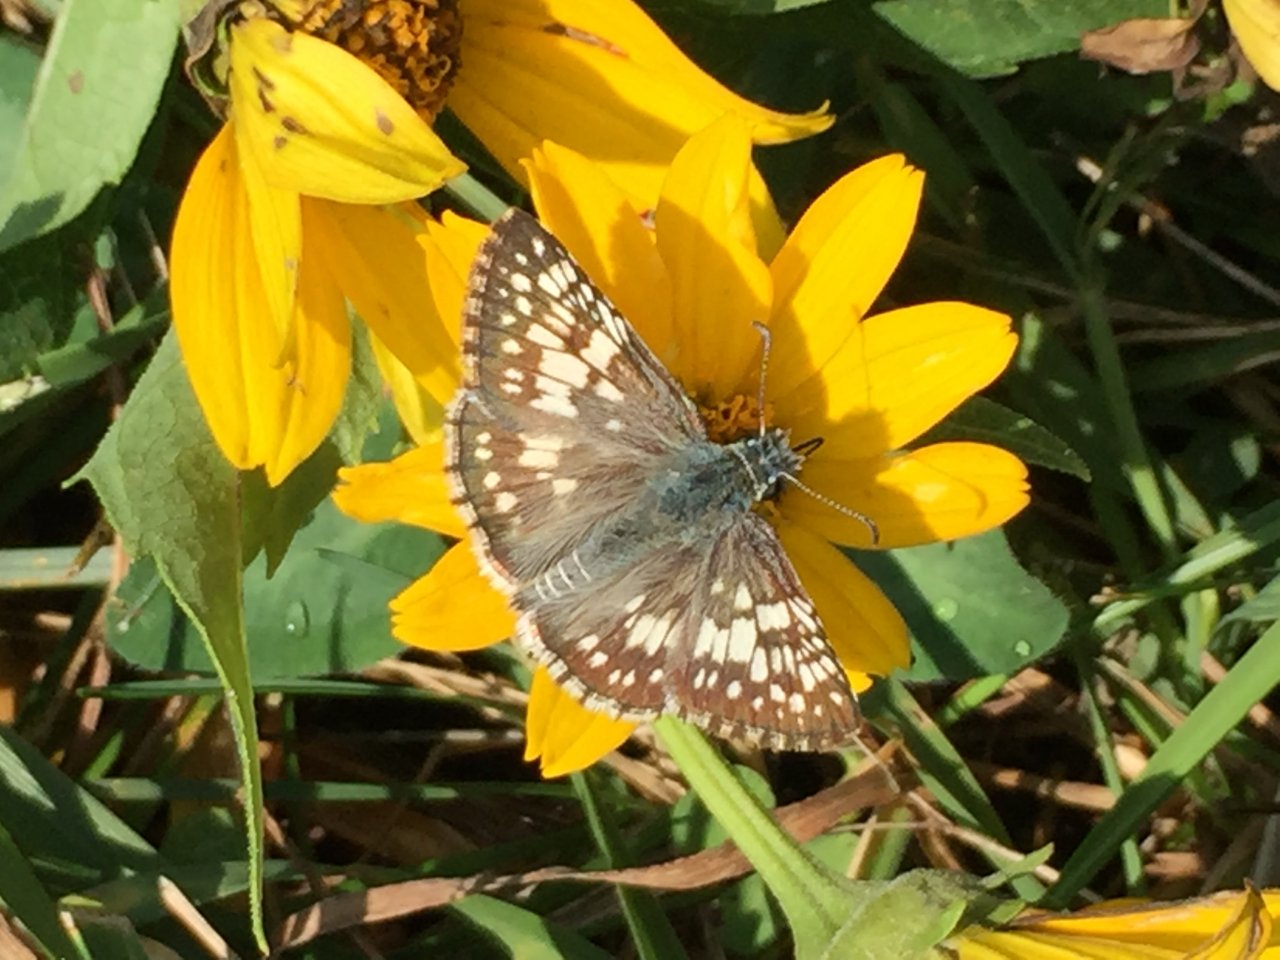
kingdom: Animalia
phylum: Arthropoda
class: Insecta
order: Lepidoptera
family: Hesperiidae
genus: Pyrgus
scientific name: Pyrgus communis
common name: Common Checkered-Skipper
